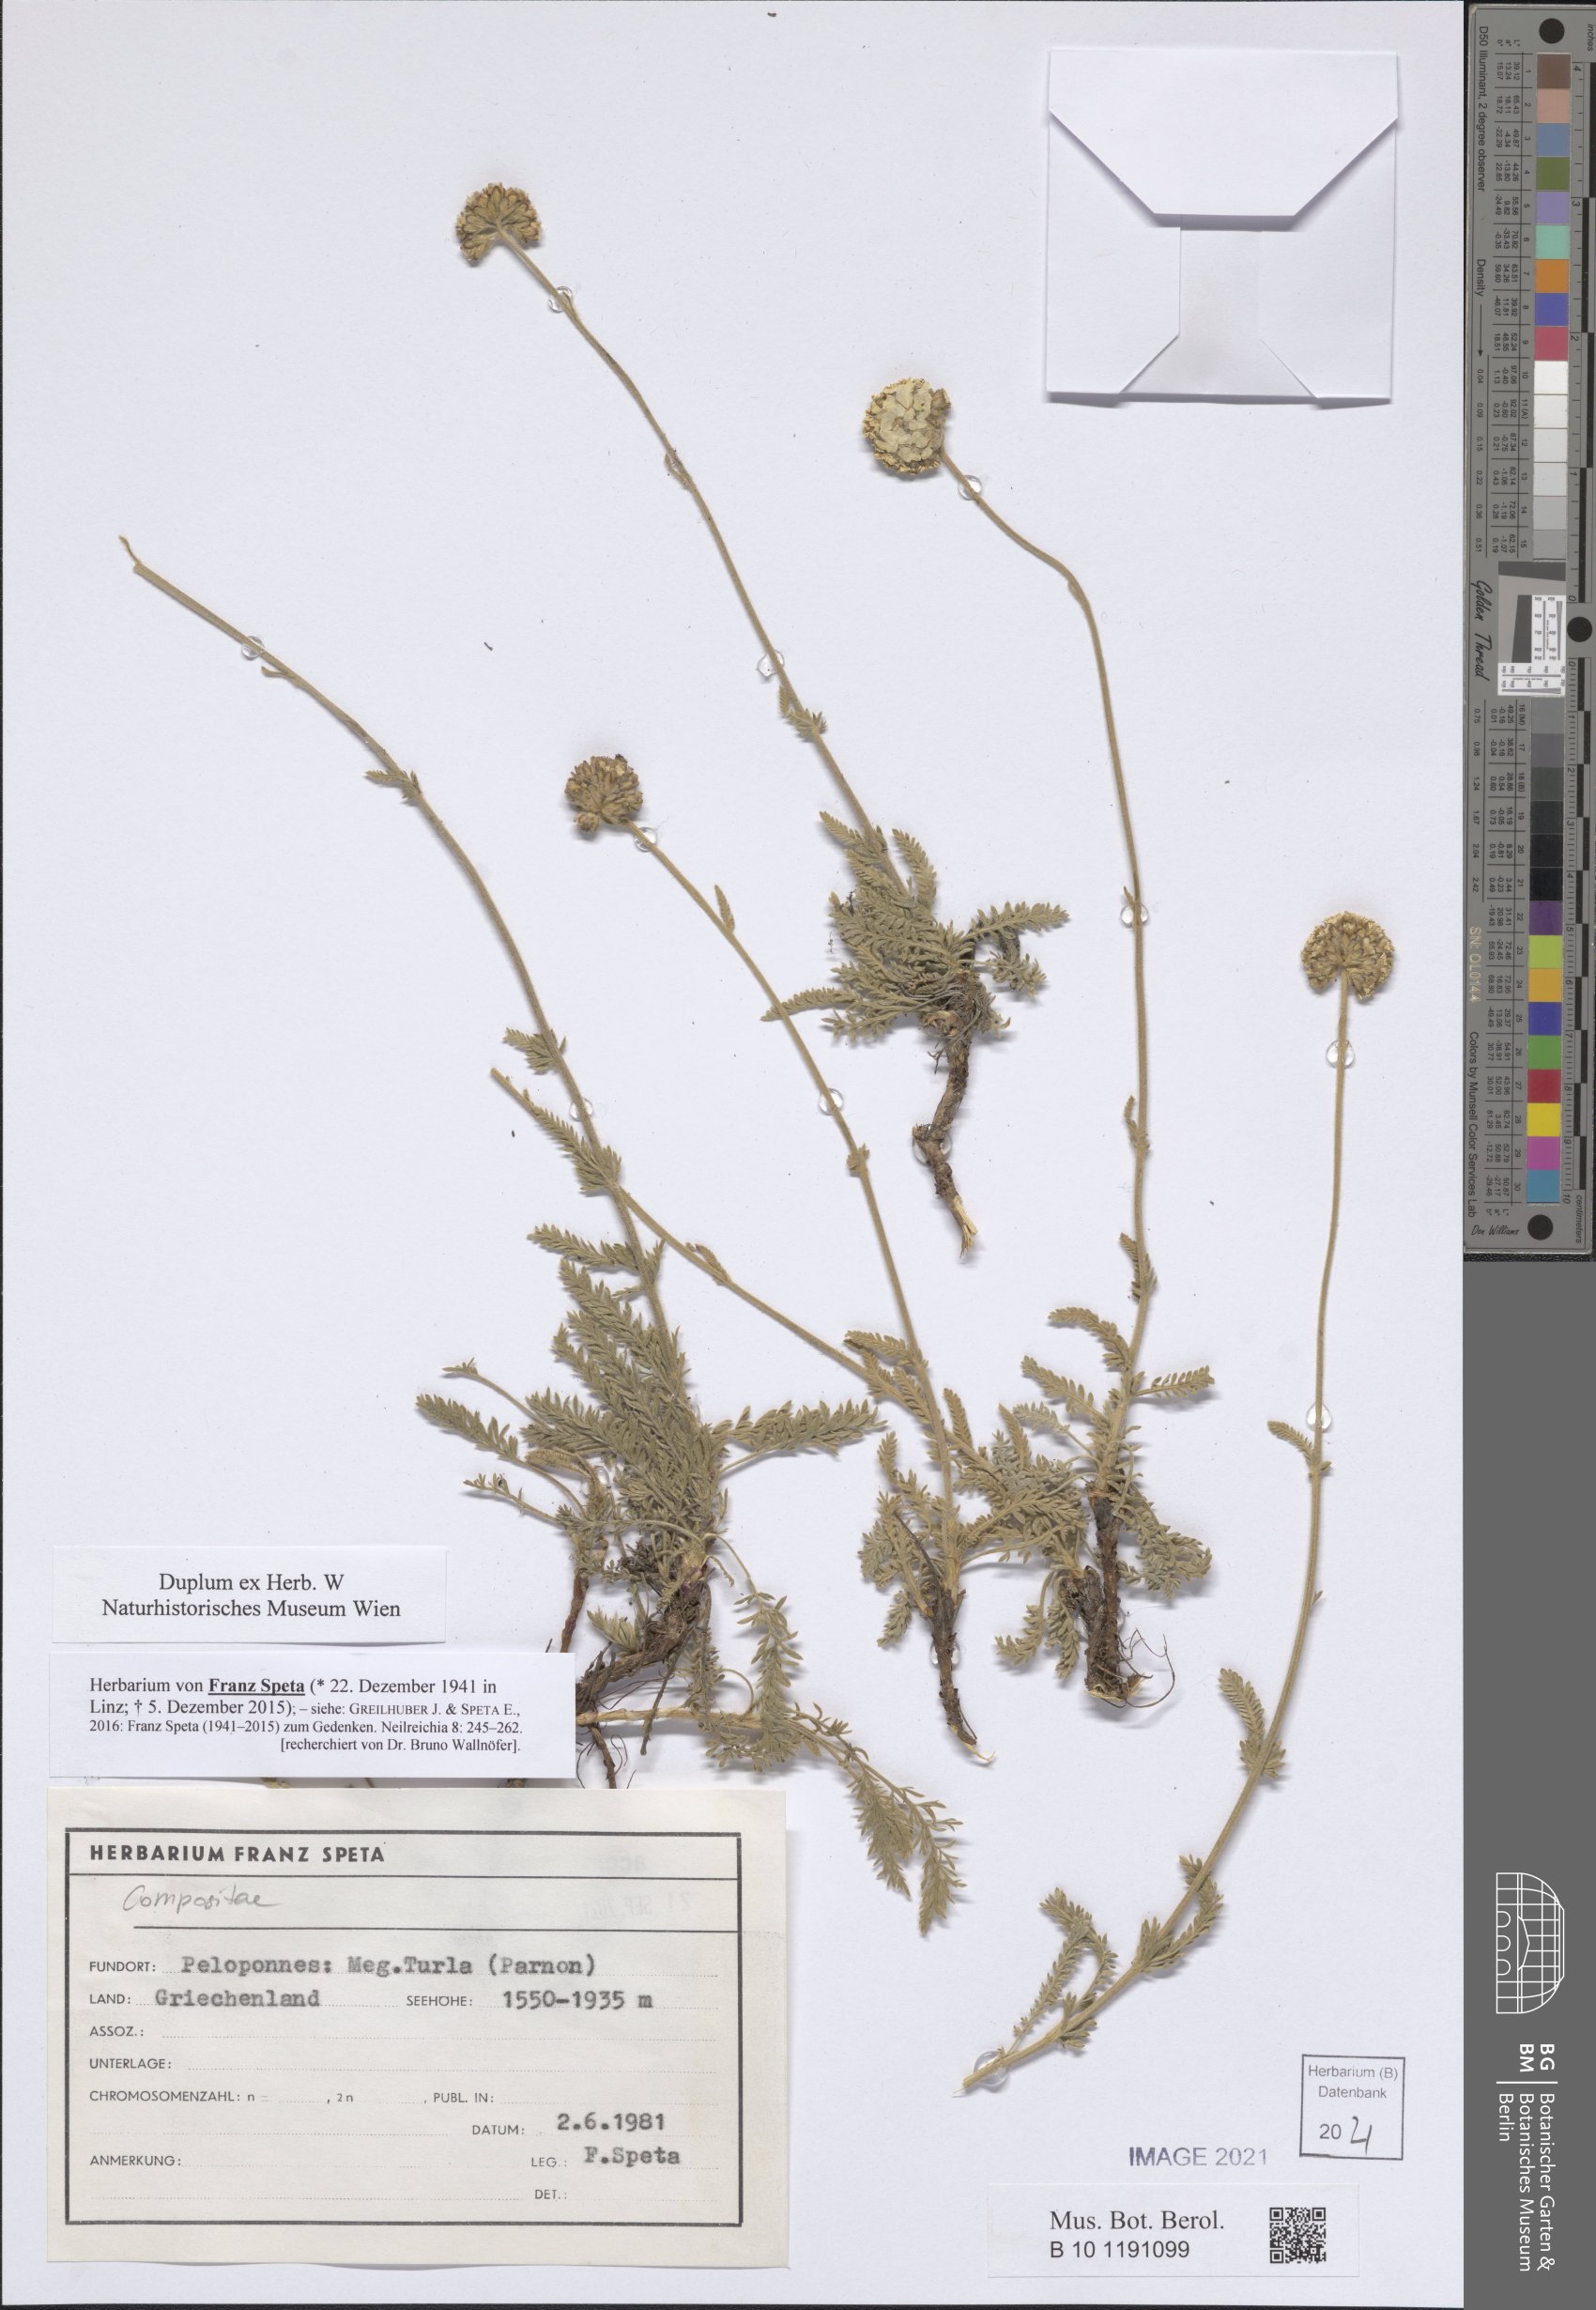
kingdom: Plantae
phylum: Tracheophyta
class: Magnoliopsida
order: Asterales
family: Asteraceae
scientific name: Asteraceae
